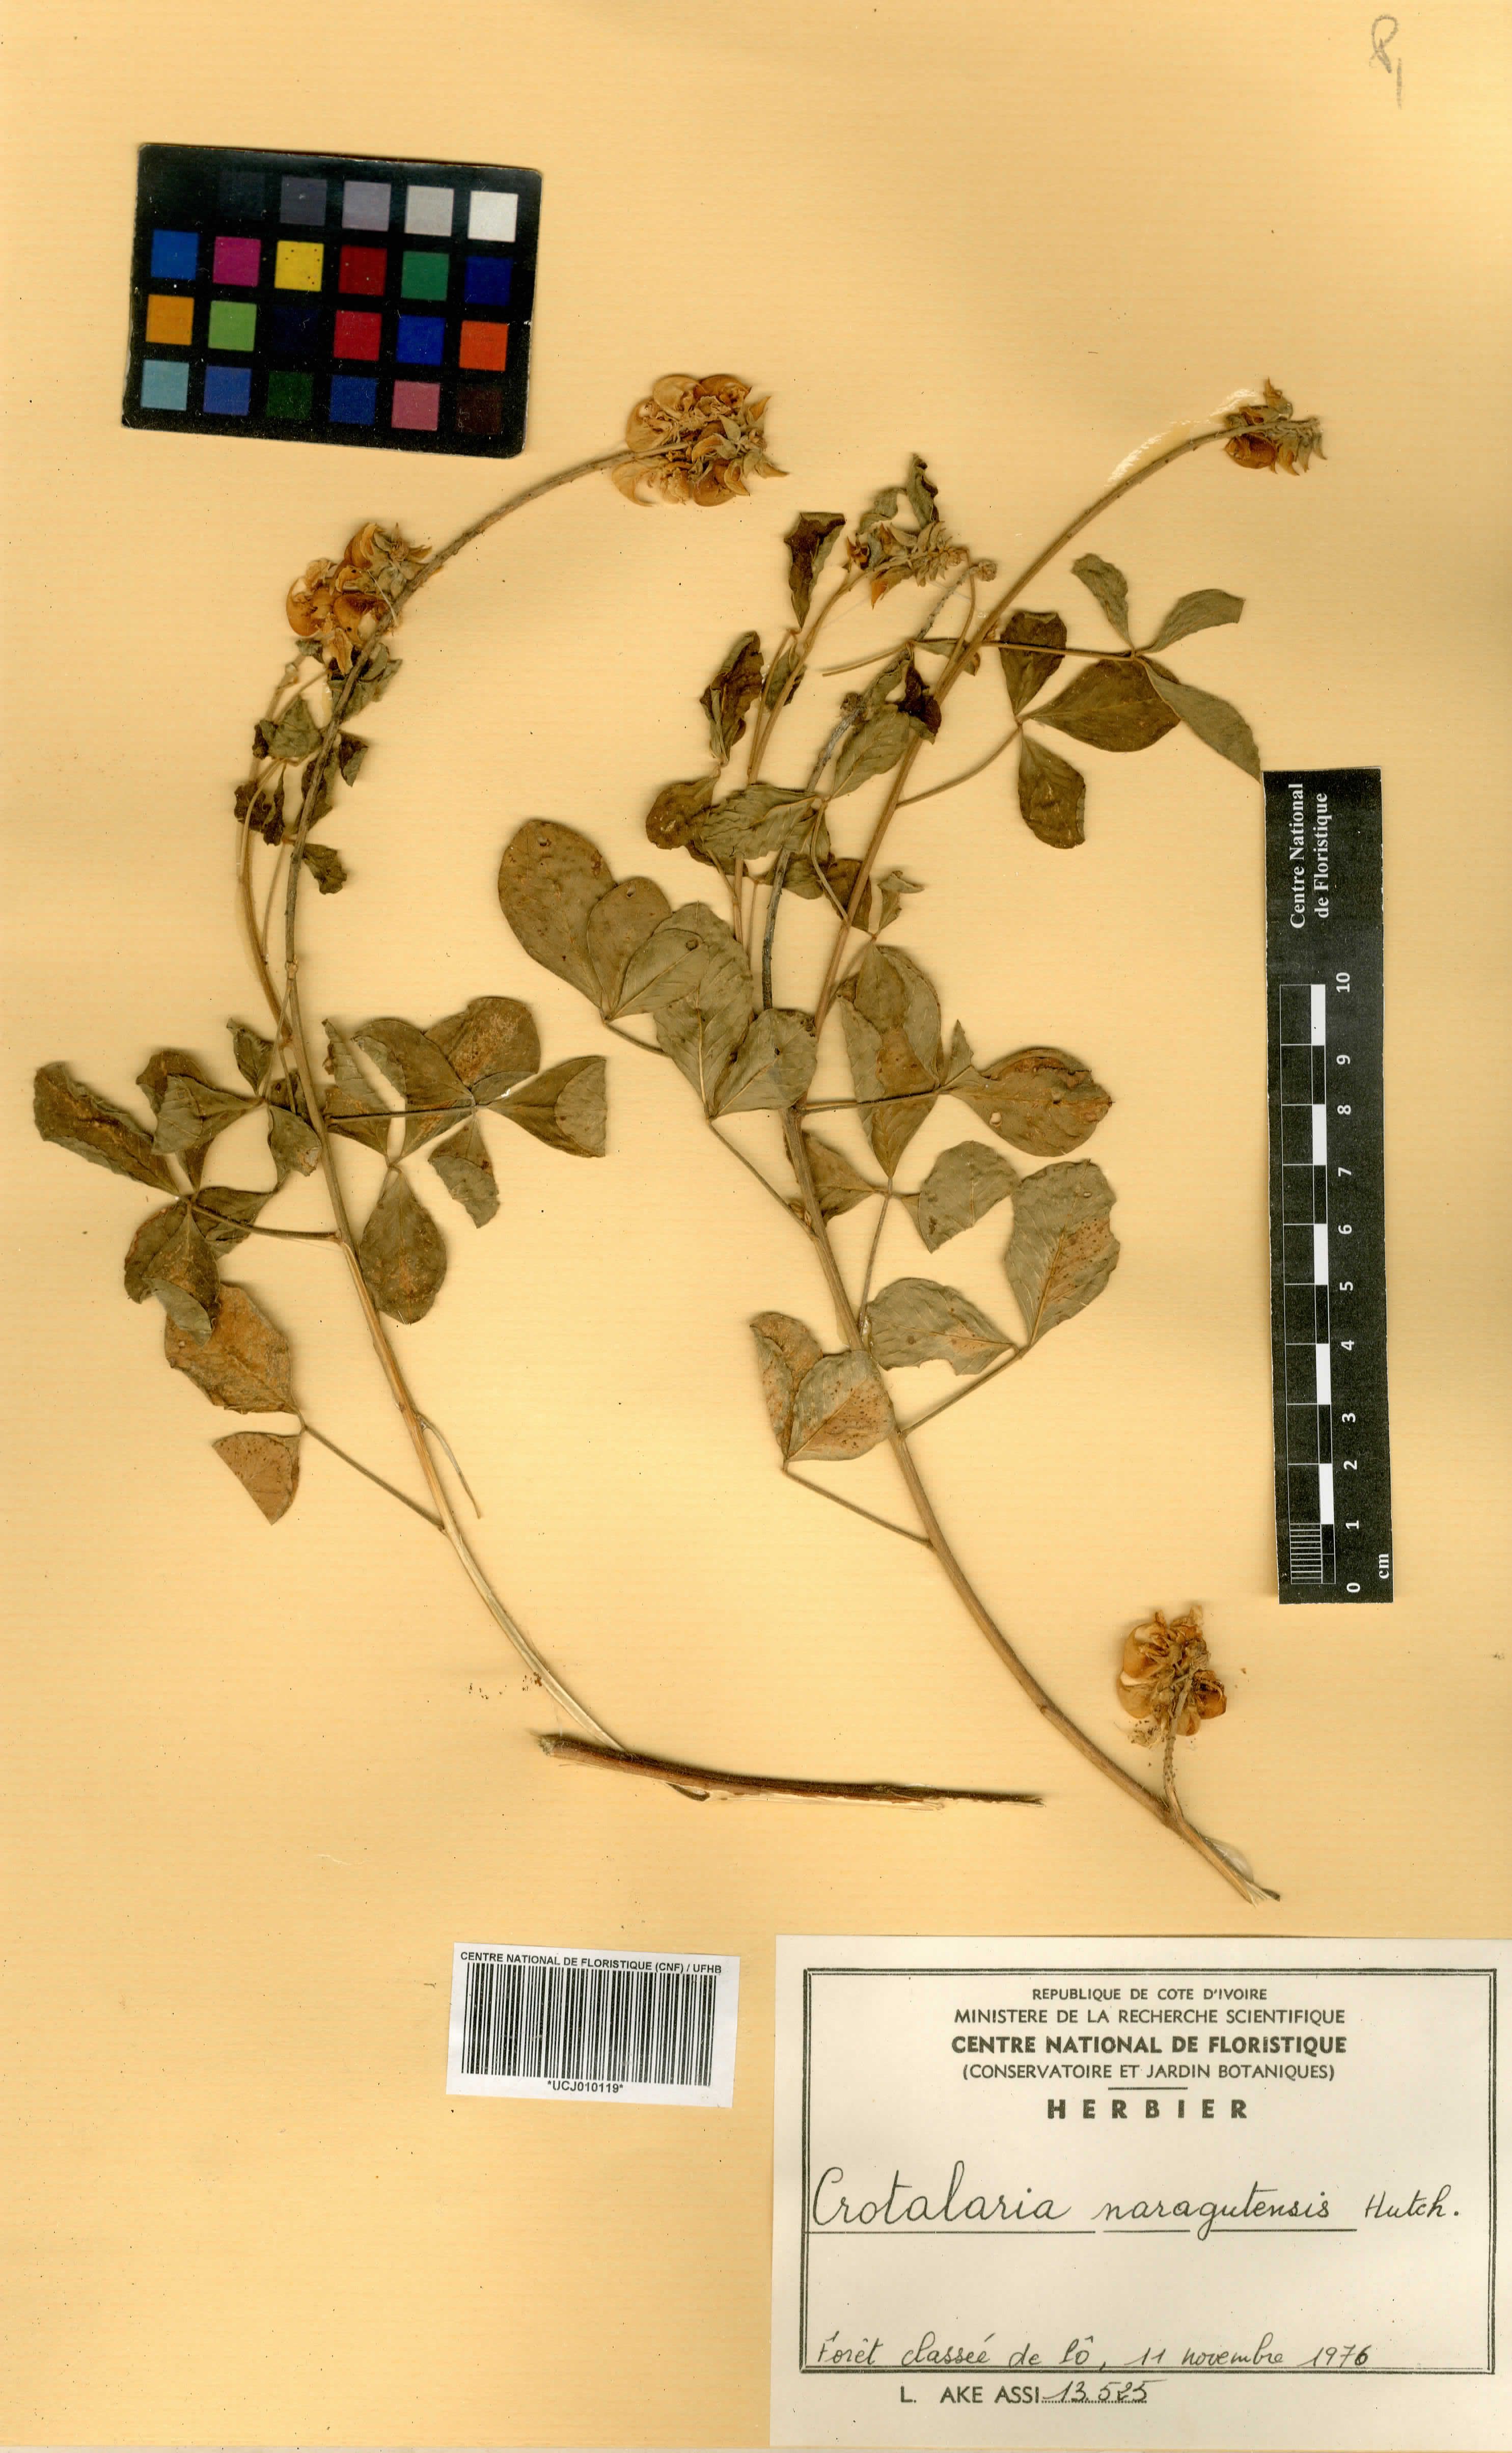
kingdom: Plantae
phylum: Tracheophyta
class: Magnoliopsida
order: Fabales
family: Fabaceae
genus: Crotalaria
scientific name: Crotalaria naragutensis
